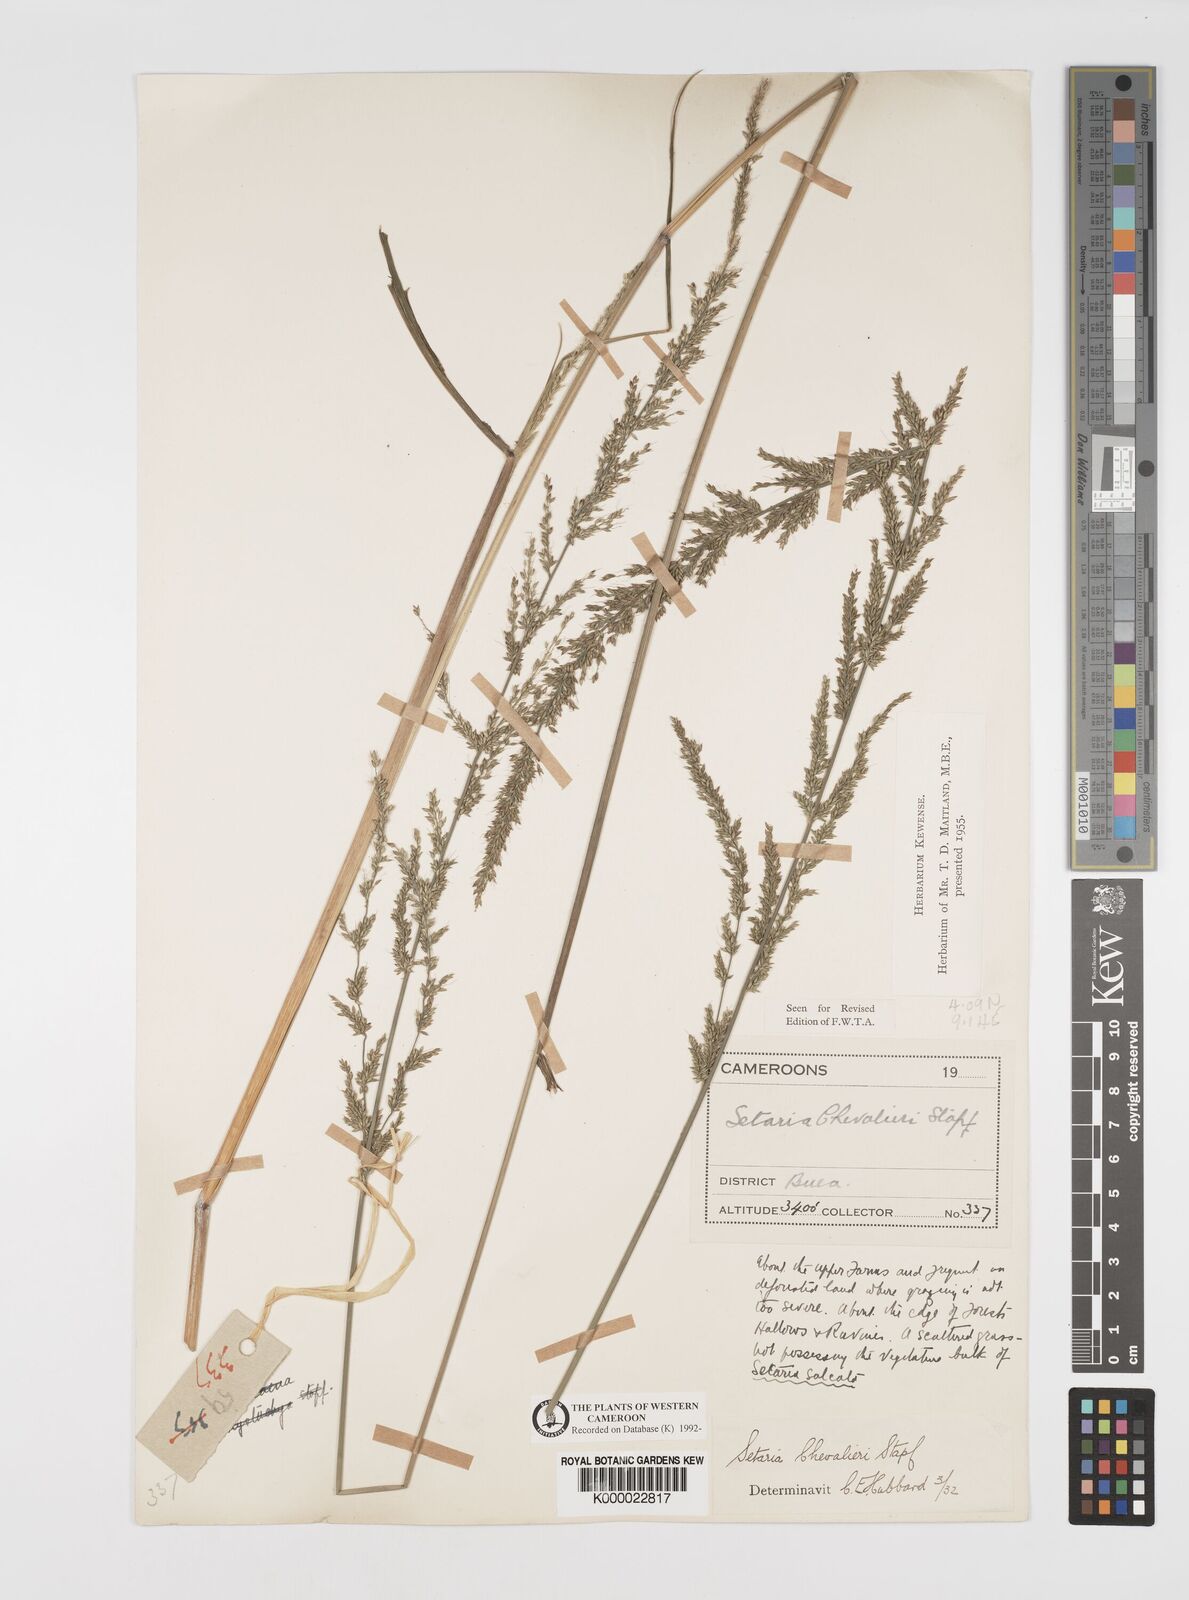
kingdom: Plantae
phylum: Tracheophyta
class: Liliopsida
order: Poales
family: Poaceae
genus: Setaria
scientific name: Setaria megaphylla
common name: Bigleaf bristlegrass
